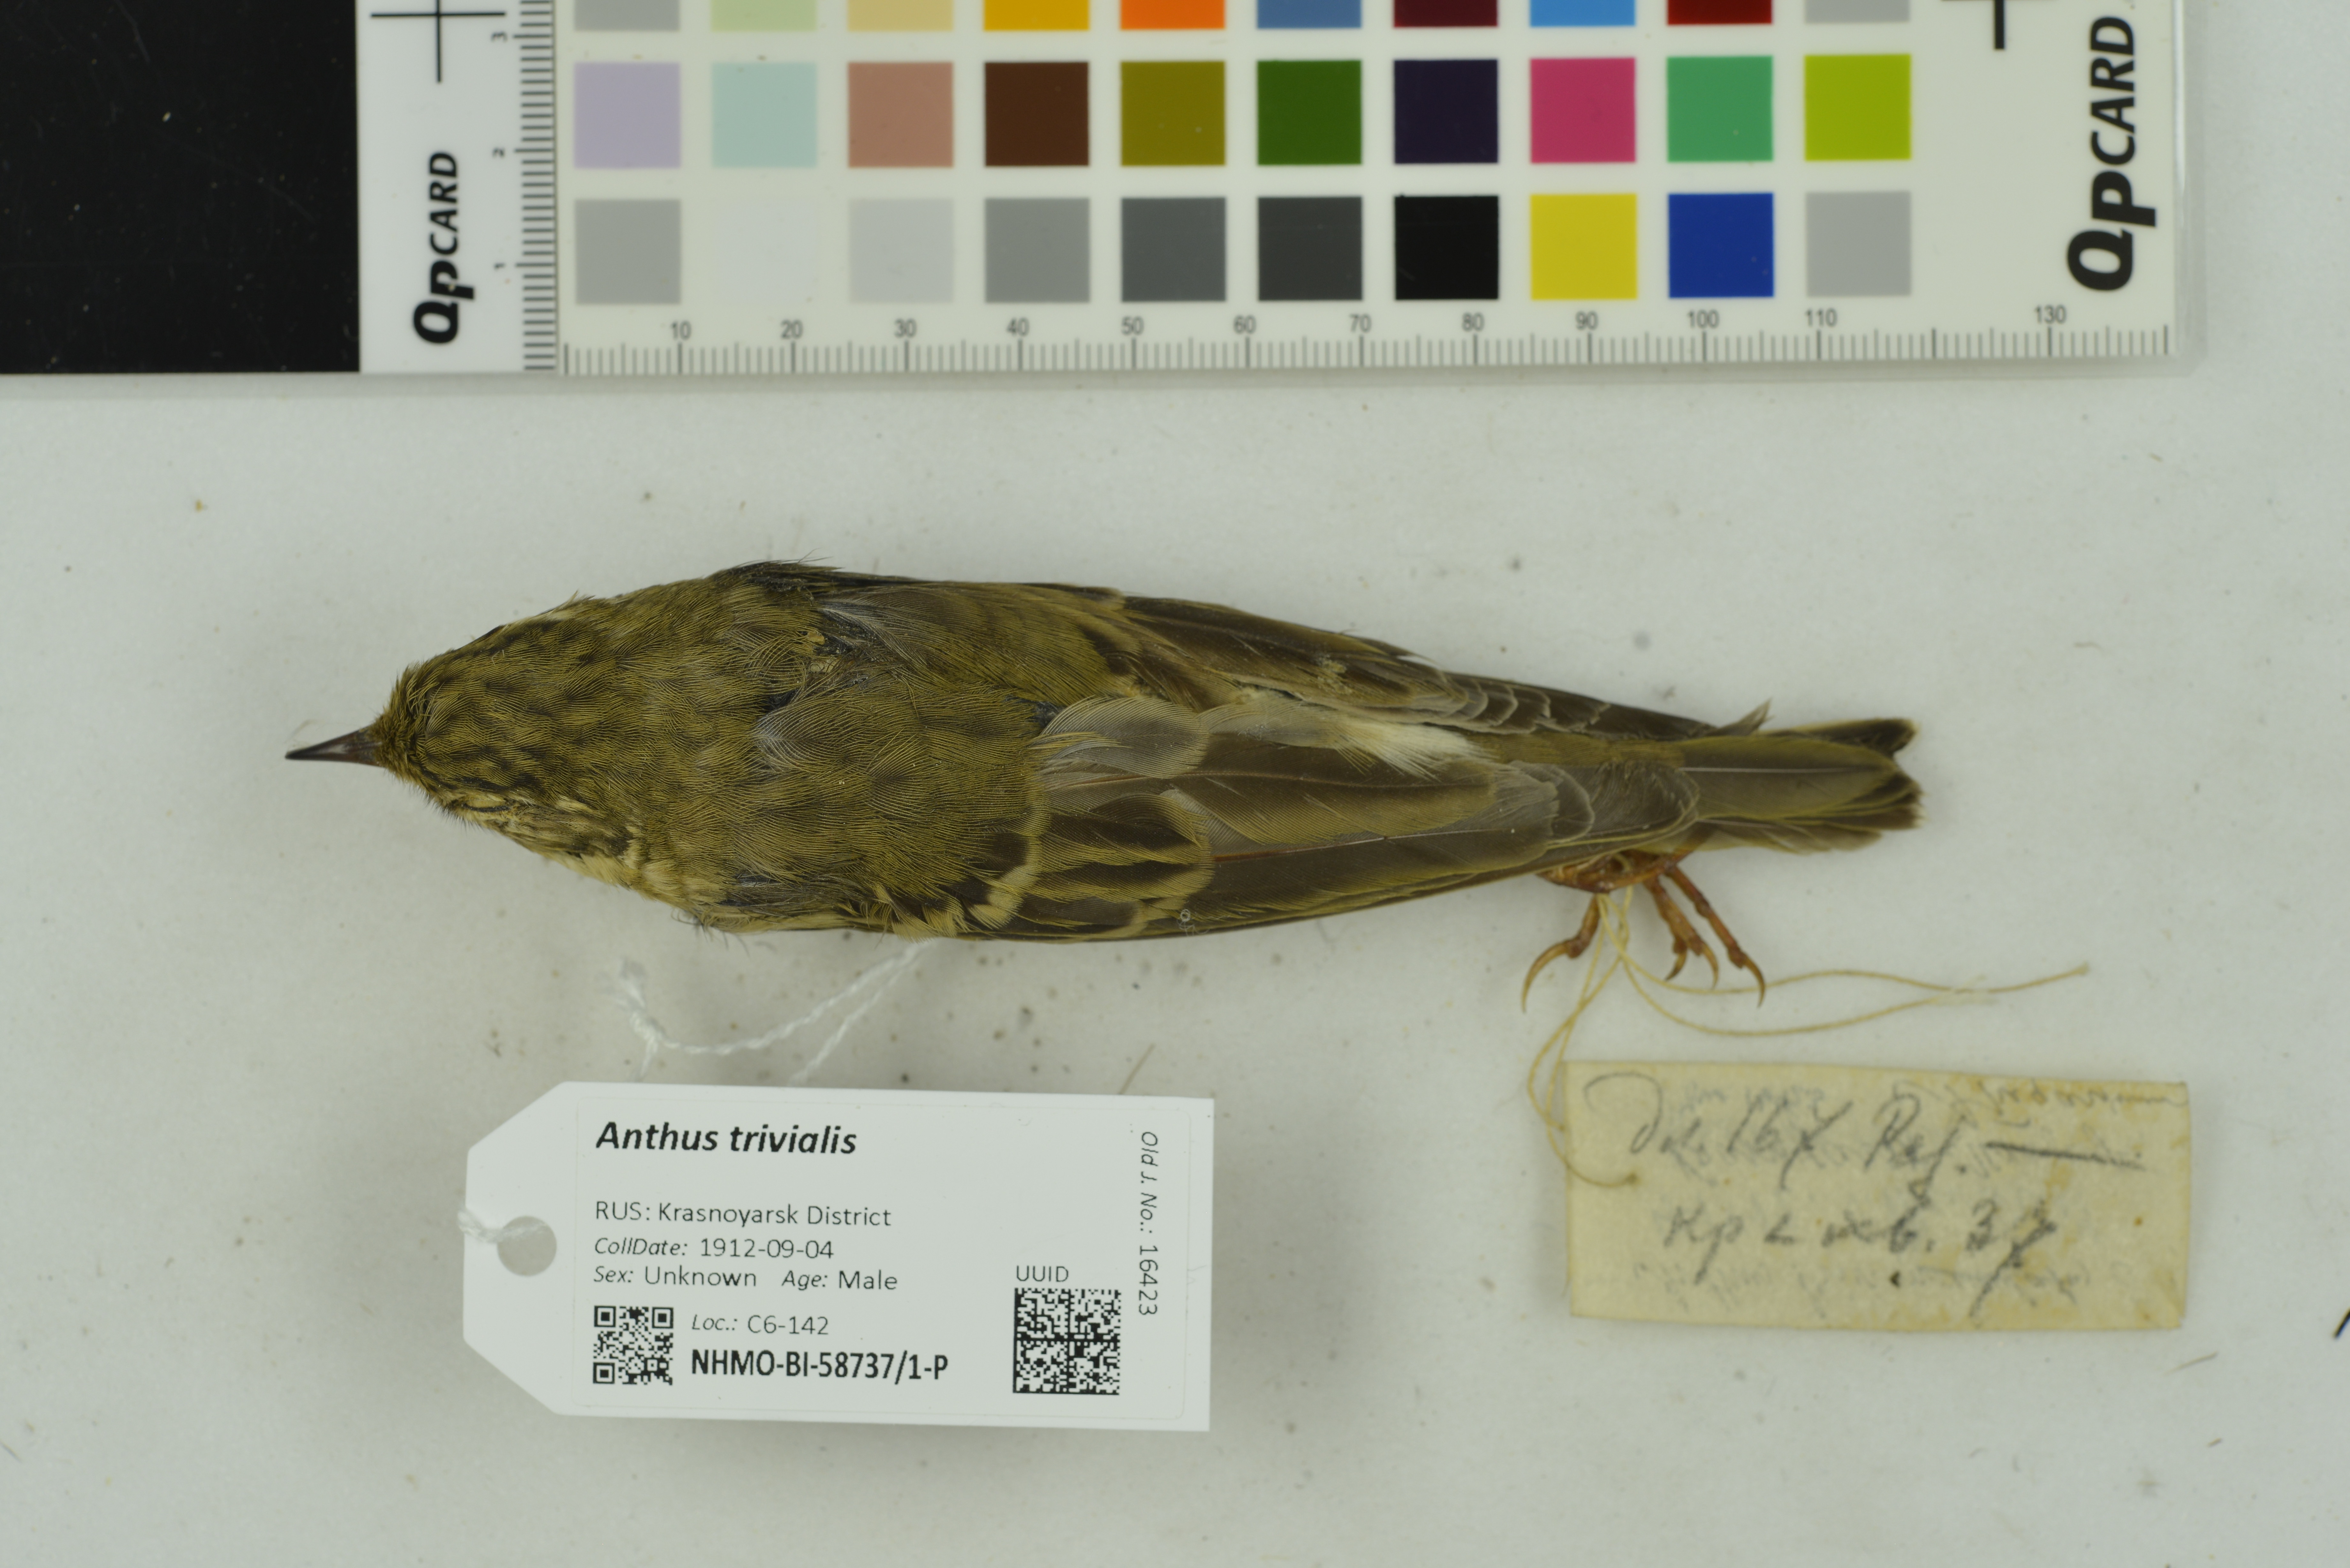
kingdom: Animalia
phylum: Chordata
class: Aves
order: Passeriformes
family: Motacillidae
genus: Anthus
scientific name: Anthus trivialis
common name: Tree pipit
